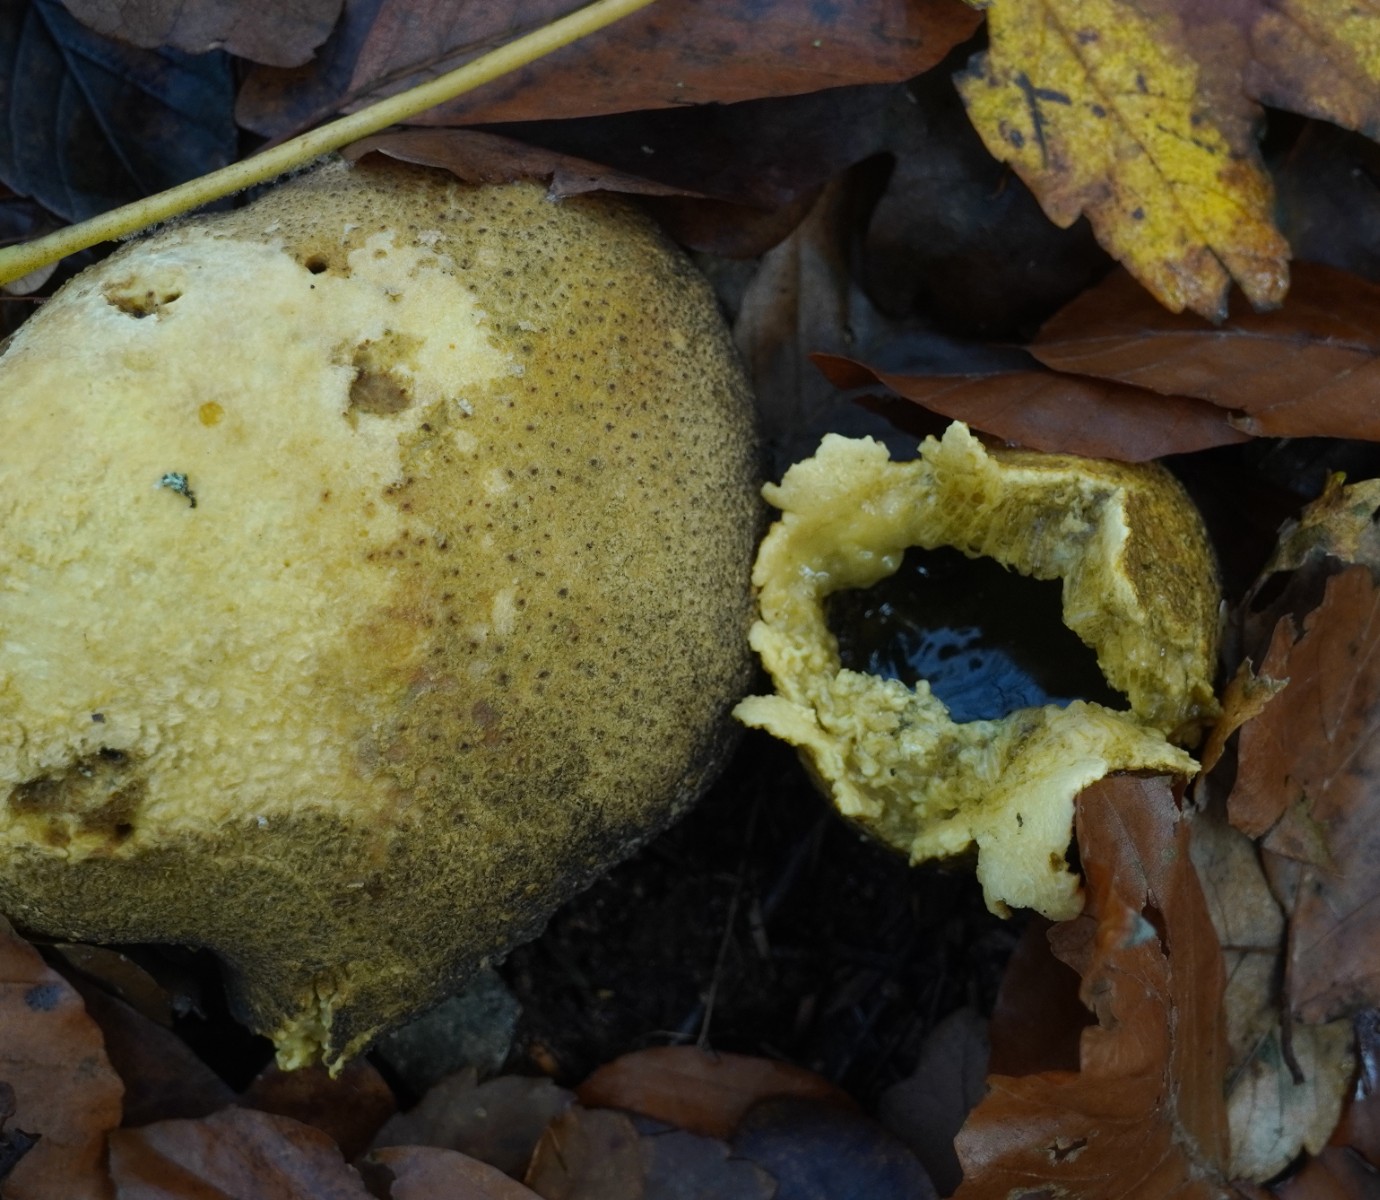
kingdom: Fungi
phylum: Basidiomycota
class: Agaricomycetes
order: Boletales
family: Sclerodermataceae
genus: Scleroderma
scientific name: Scleroderma citrinum
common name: almindelig bruskbold
